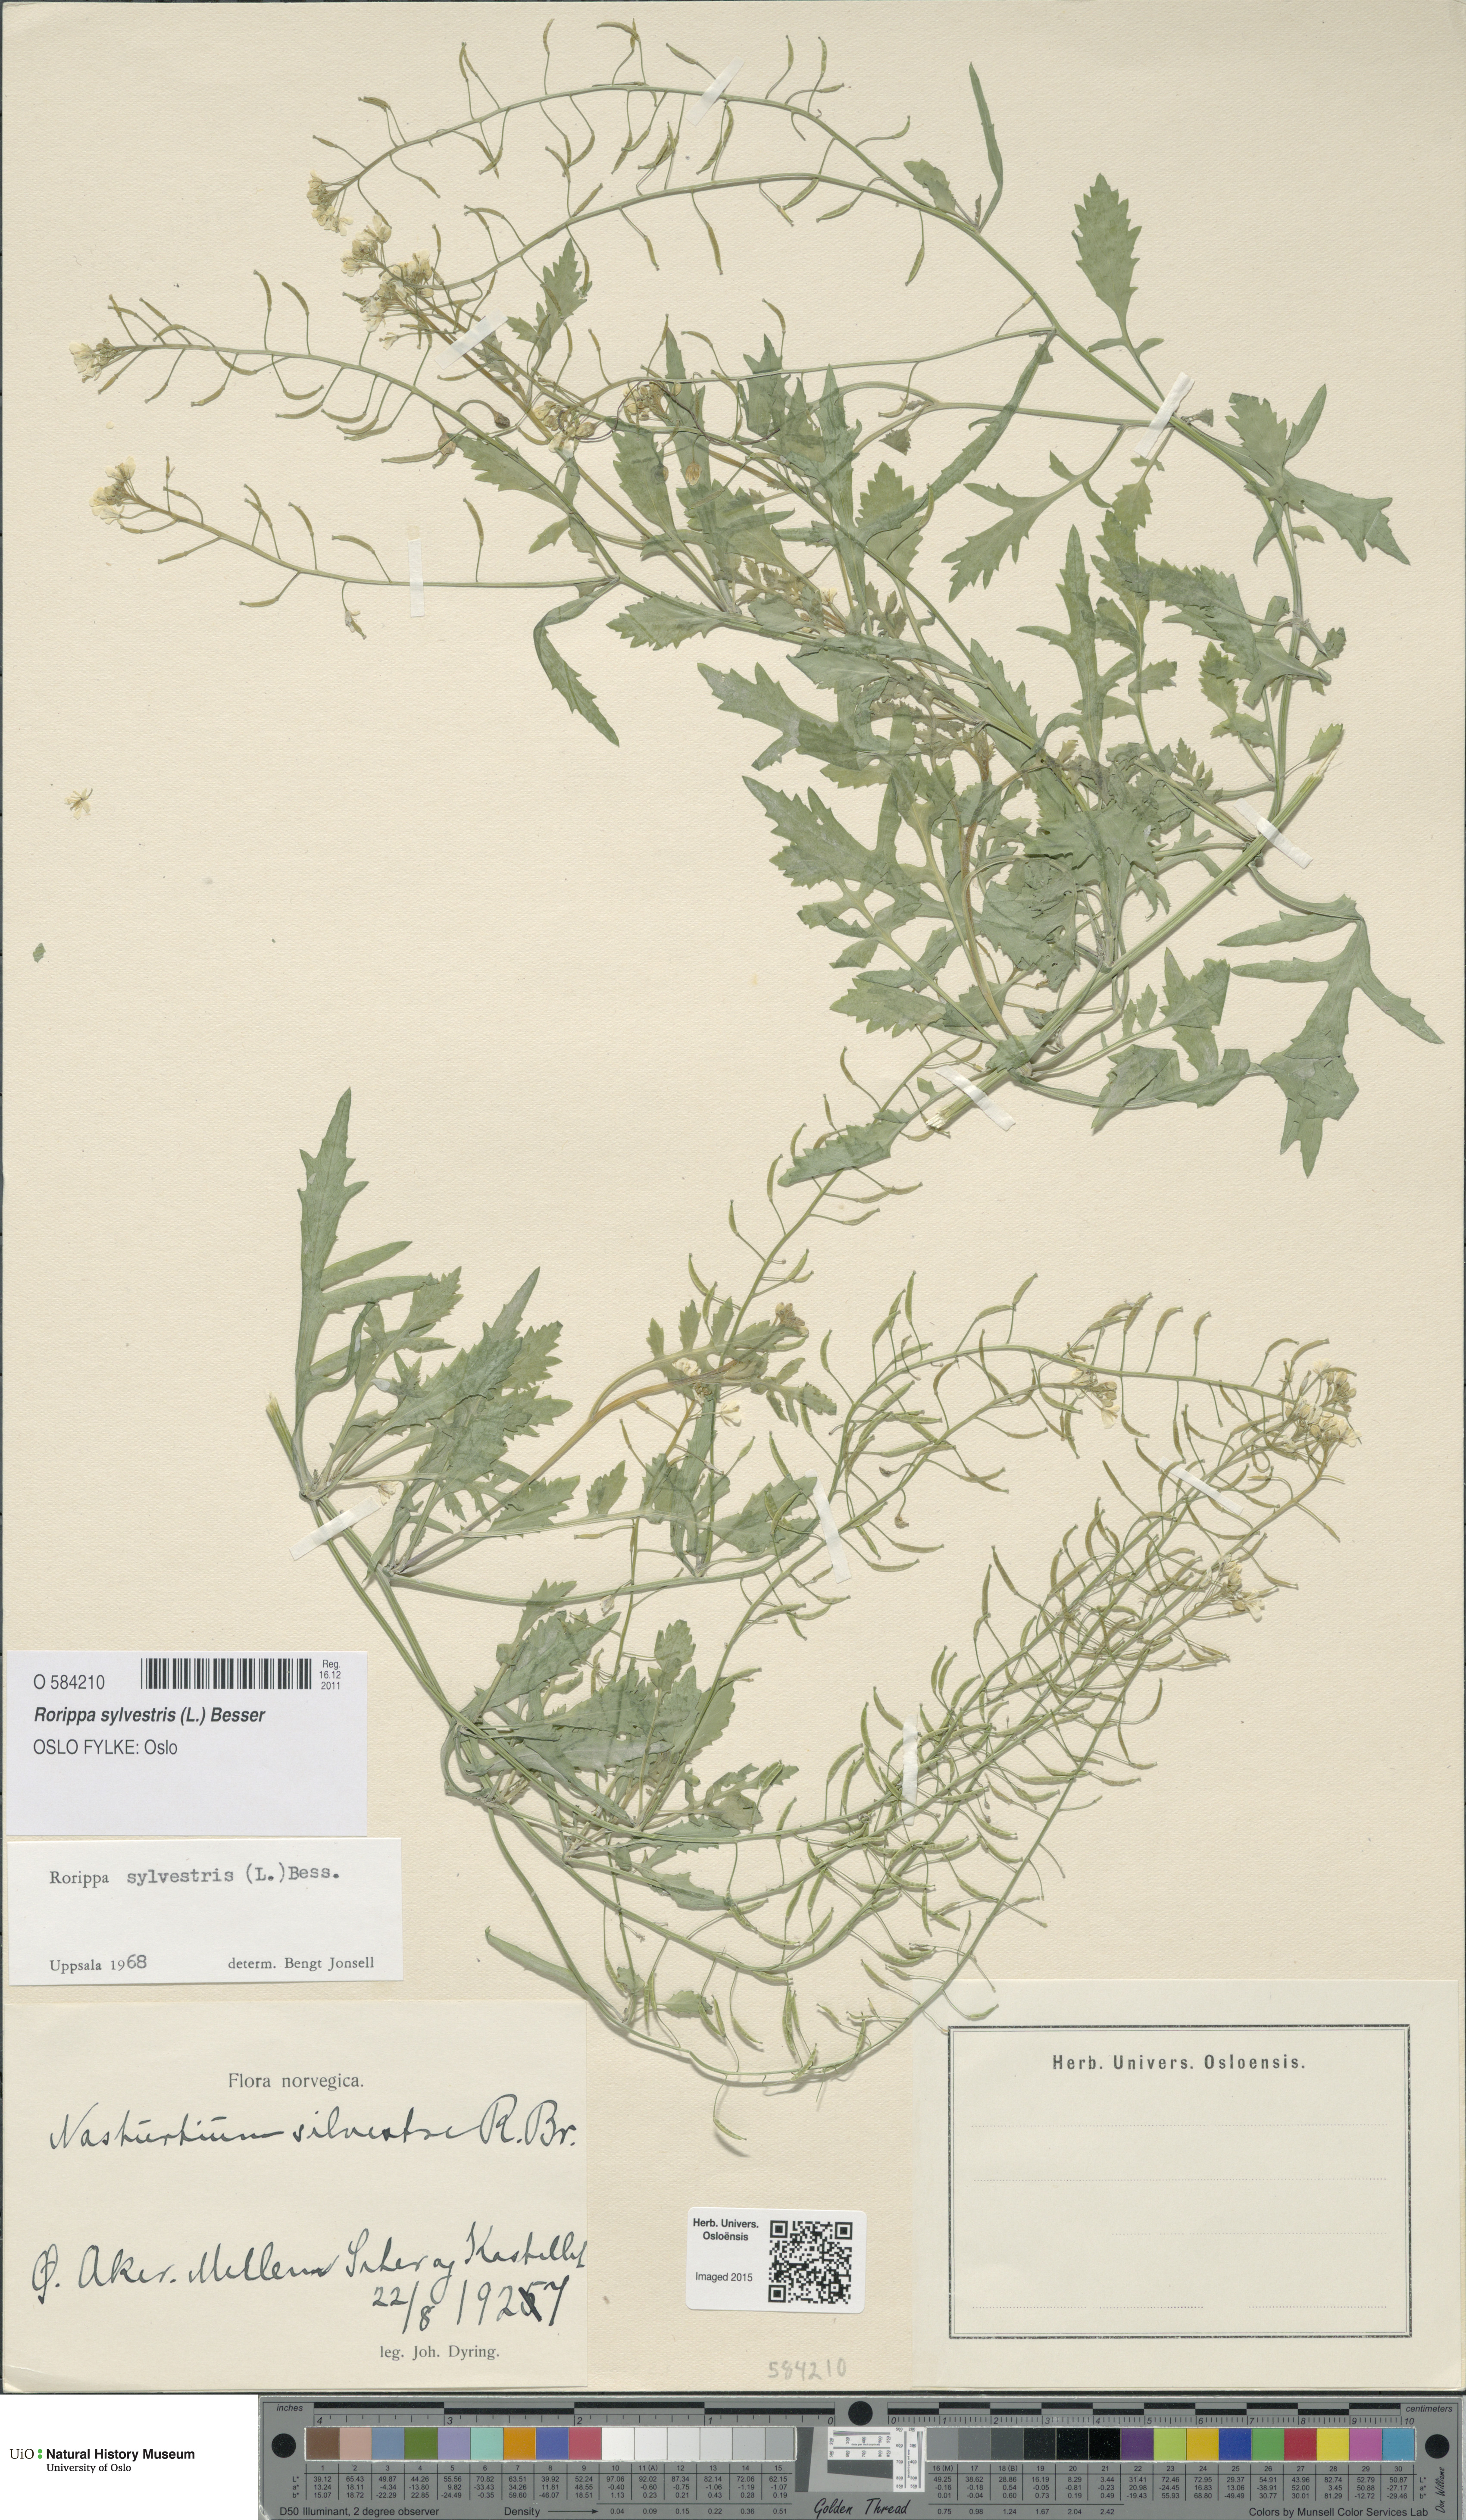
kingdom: Plantae
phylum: Tracheophyta
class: Magnoliopsida
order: Brassicales
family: Brassicaceae
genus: Rorippa
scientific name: Rorippa sylvestris
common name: Creeping yellowcress
